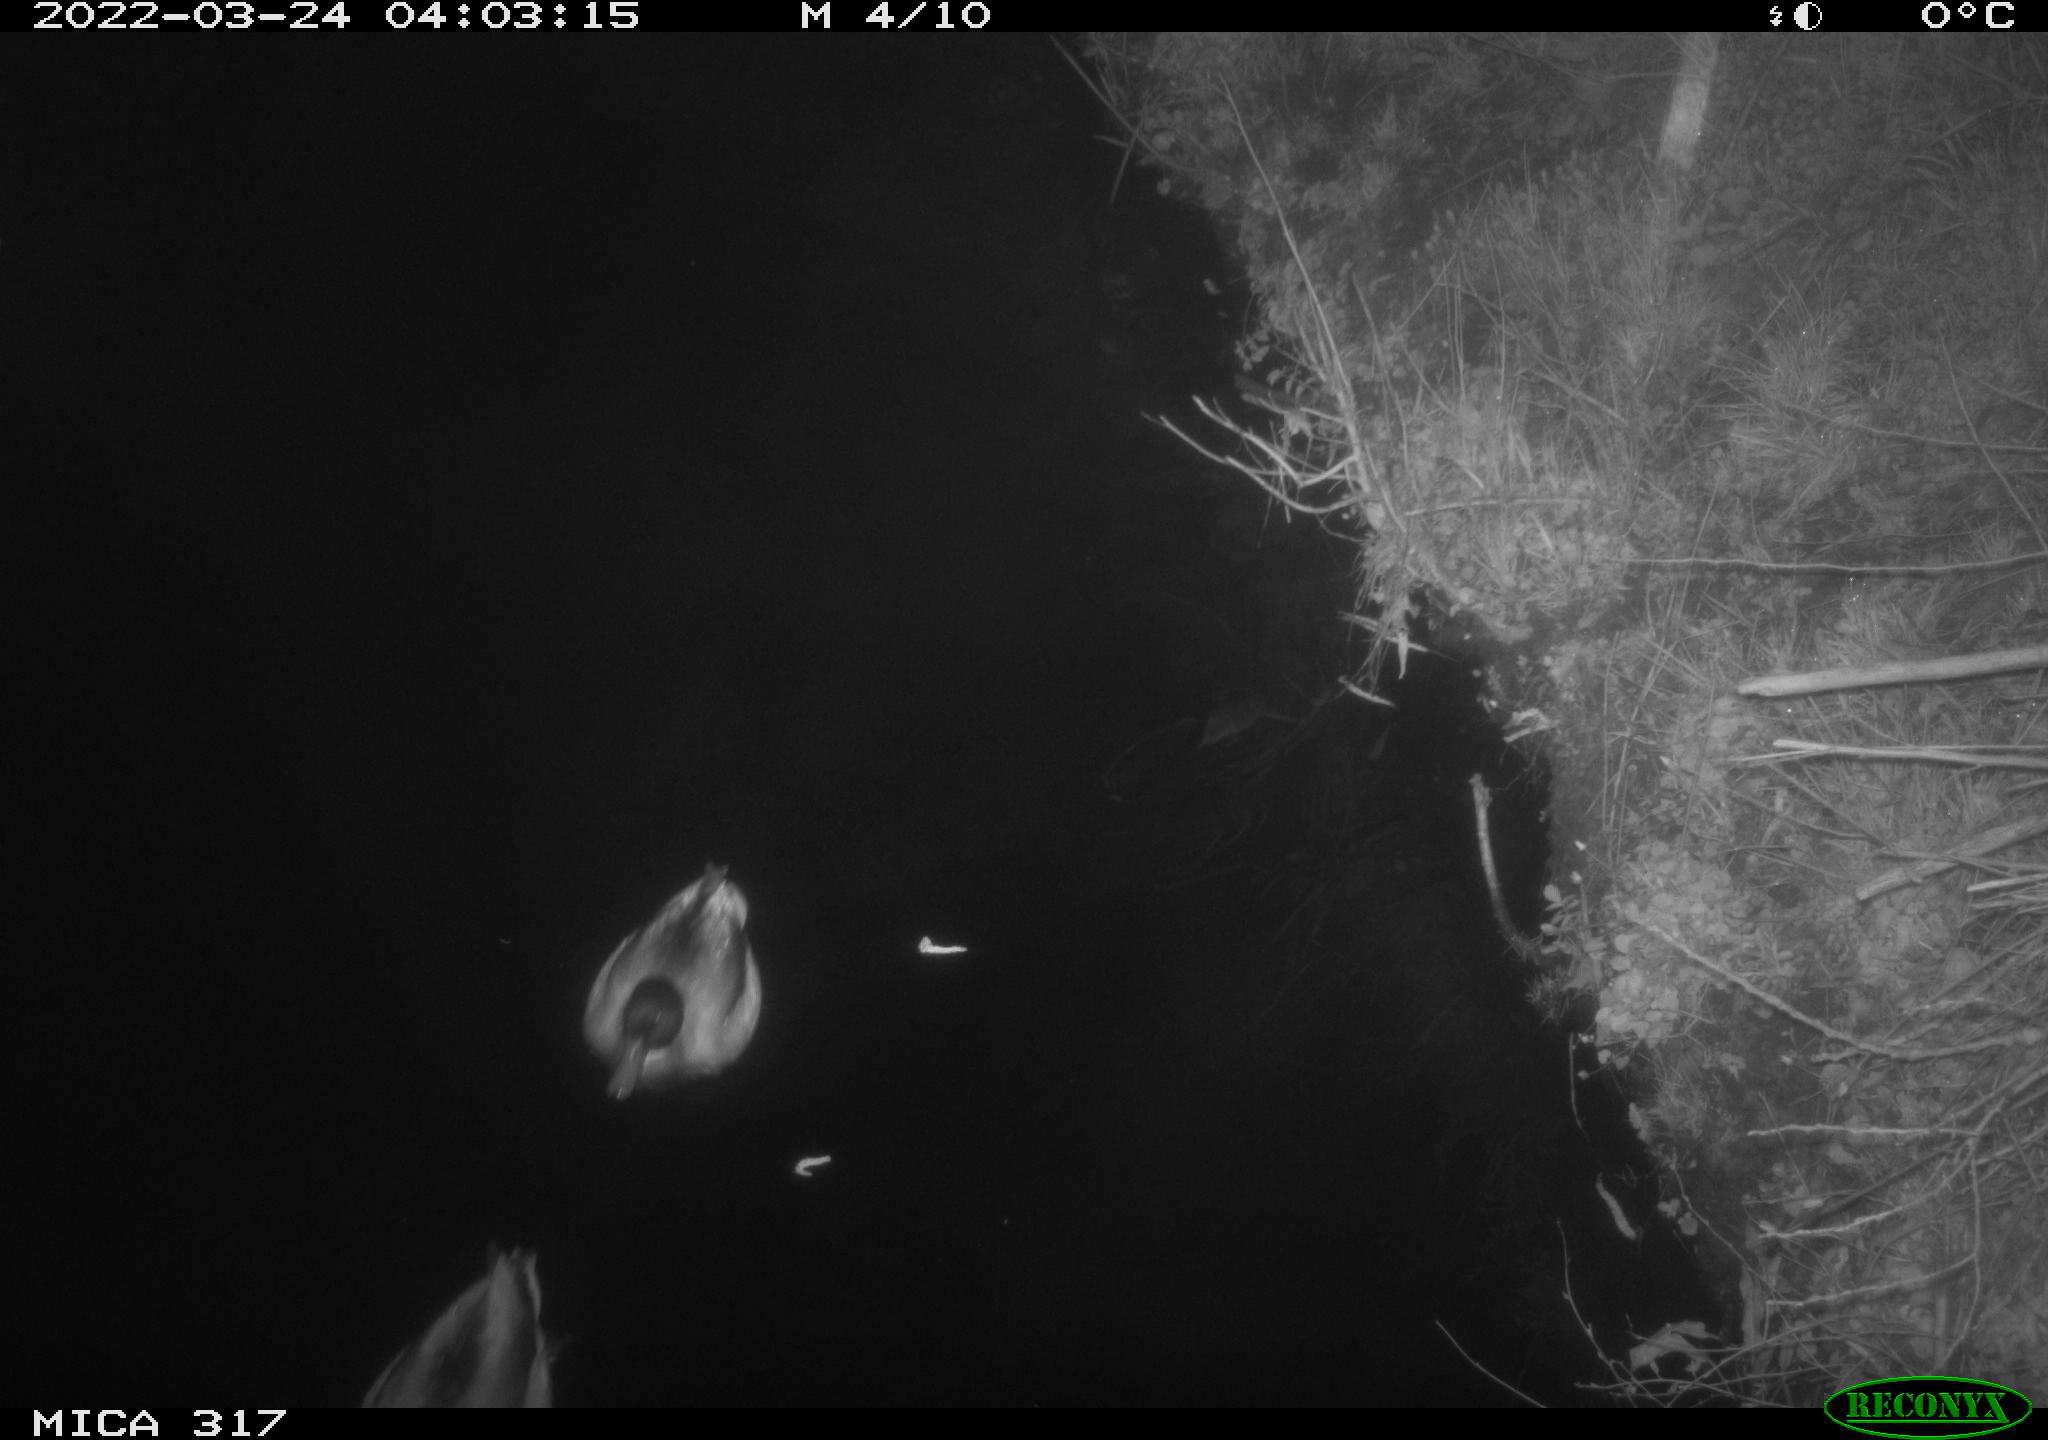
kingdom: Animalia
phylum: Chordata
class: Aves
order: Anseriformes
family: Anatidae
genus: Anas
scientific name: Anas platyrhynchos
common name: Mallard
